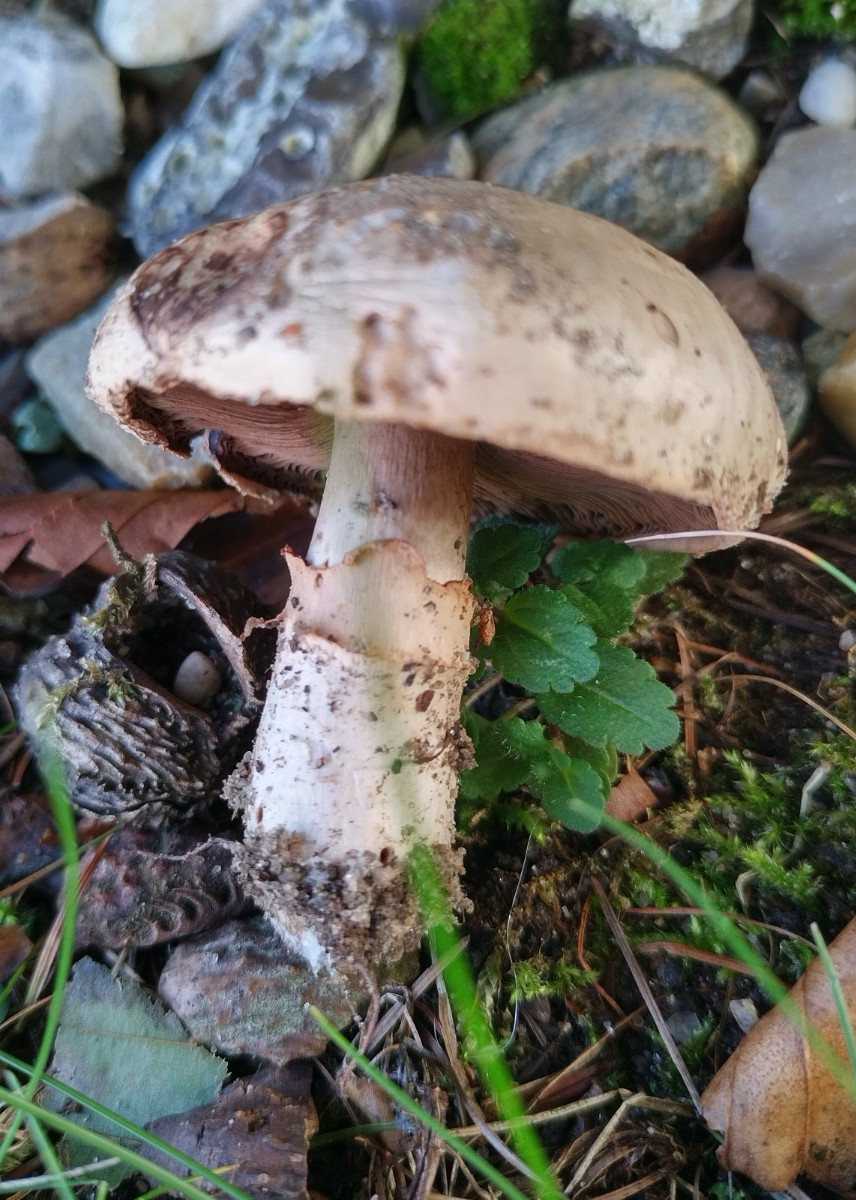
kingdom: Fungi
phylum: Basidiomycota
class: Agaricomycetes
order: Agaricales
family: Agaricaceae
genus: Agaricus
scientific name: Agaricus bitorquis
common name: vej-champignon
